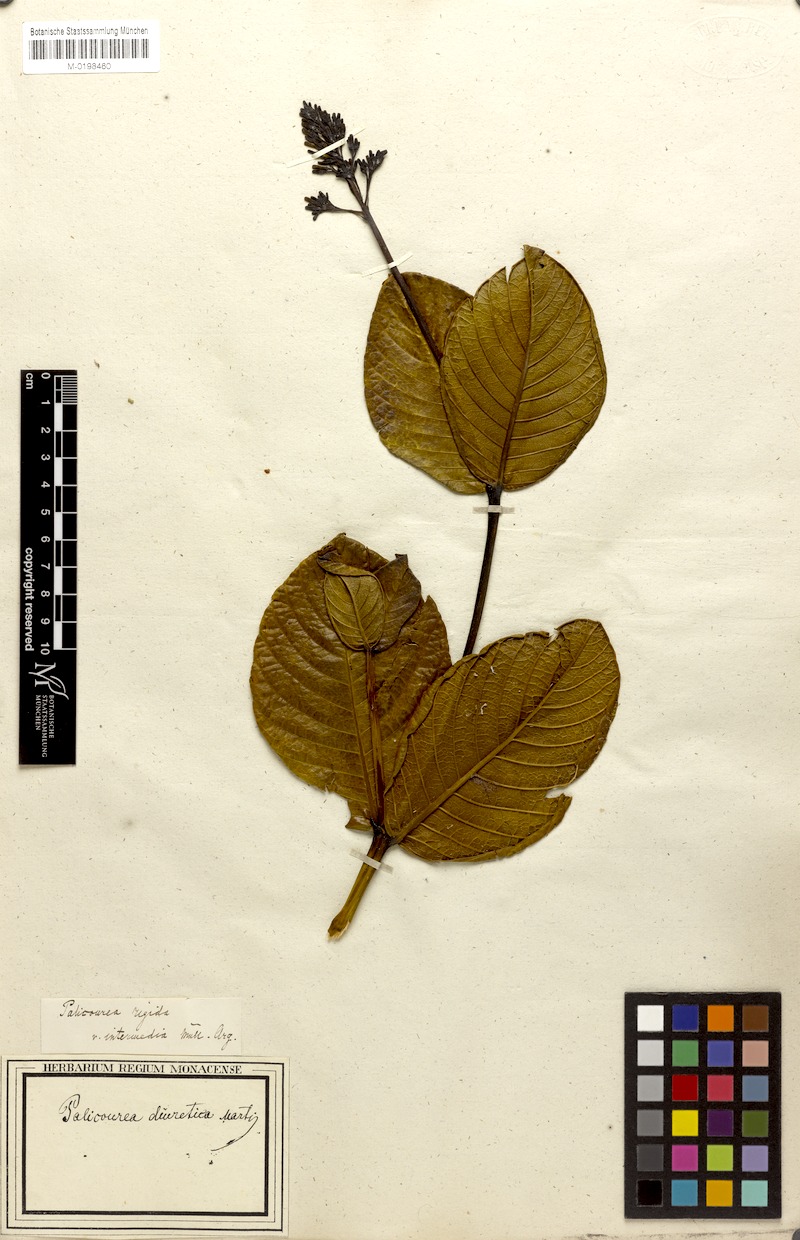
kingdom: Plantae
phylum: Tracheophyta
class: Magnoliopsida
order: Gentianales
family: Rubiaceae
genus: Palicourea
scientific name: Palicourea rigida
